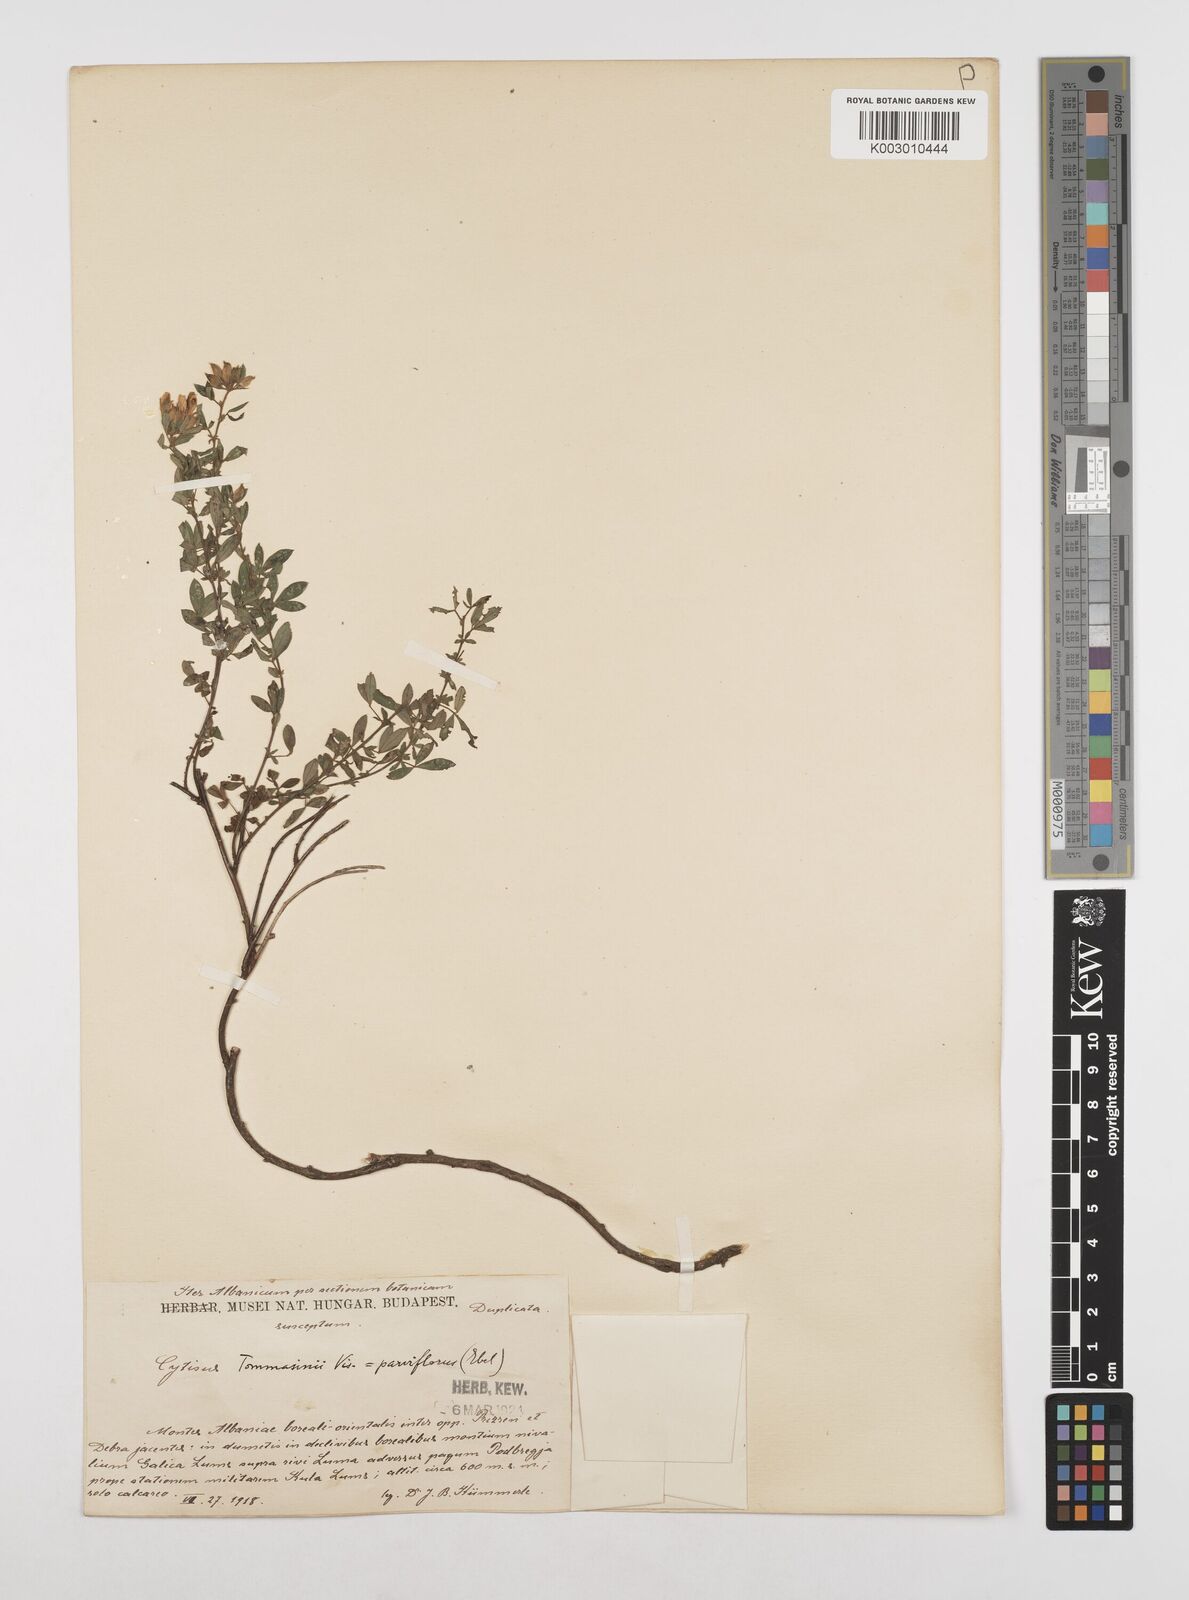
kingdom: Plantae
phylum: Tracheophyta
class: Magnoliopsida
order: Fabales
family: Fabaceae
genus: Chamaecytisus
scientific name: Chamaecytisus tommasinii
